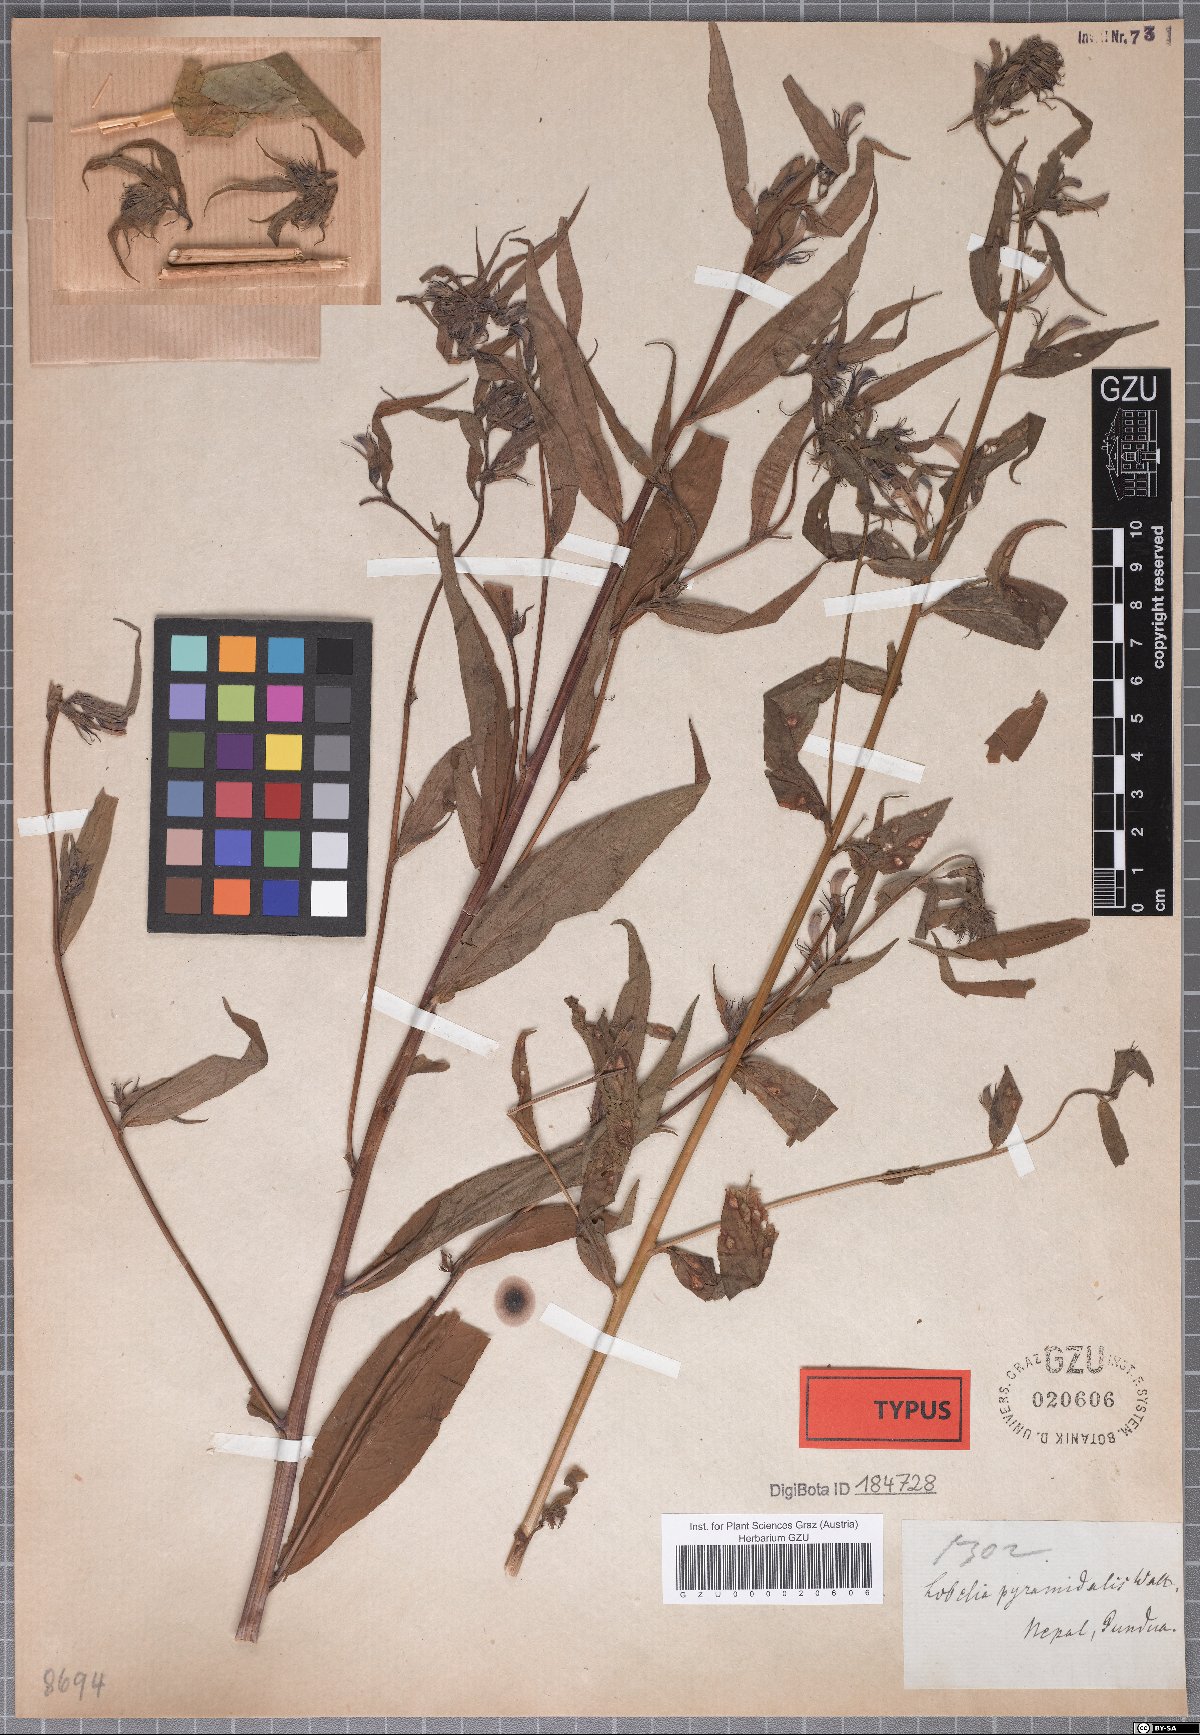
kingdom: Plantae
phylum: Tracheophyta
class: Magnoliopsida
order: Asterales
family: Campanulaceae
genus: Lobelia
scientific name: Lobelia pyramidalis
